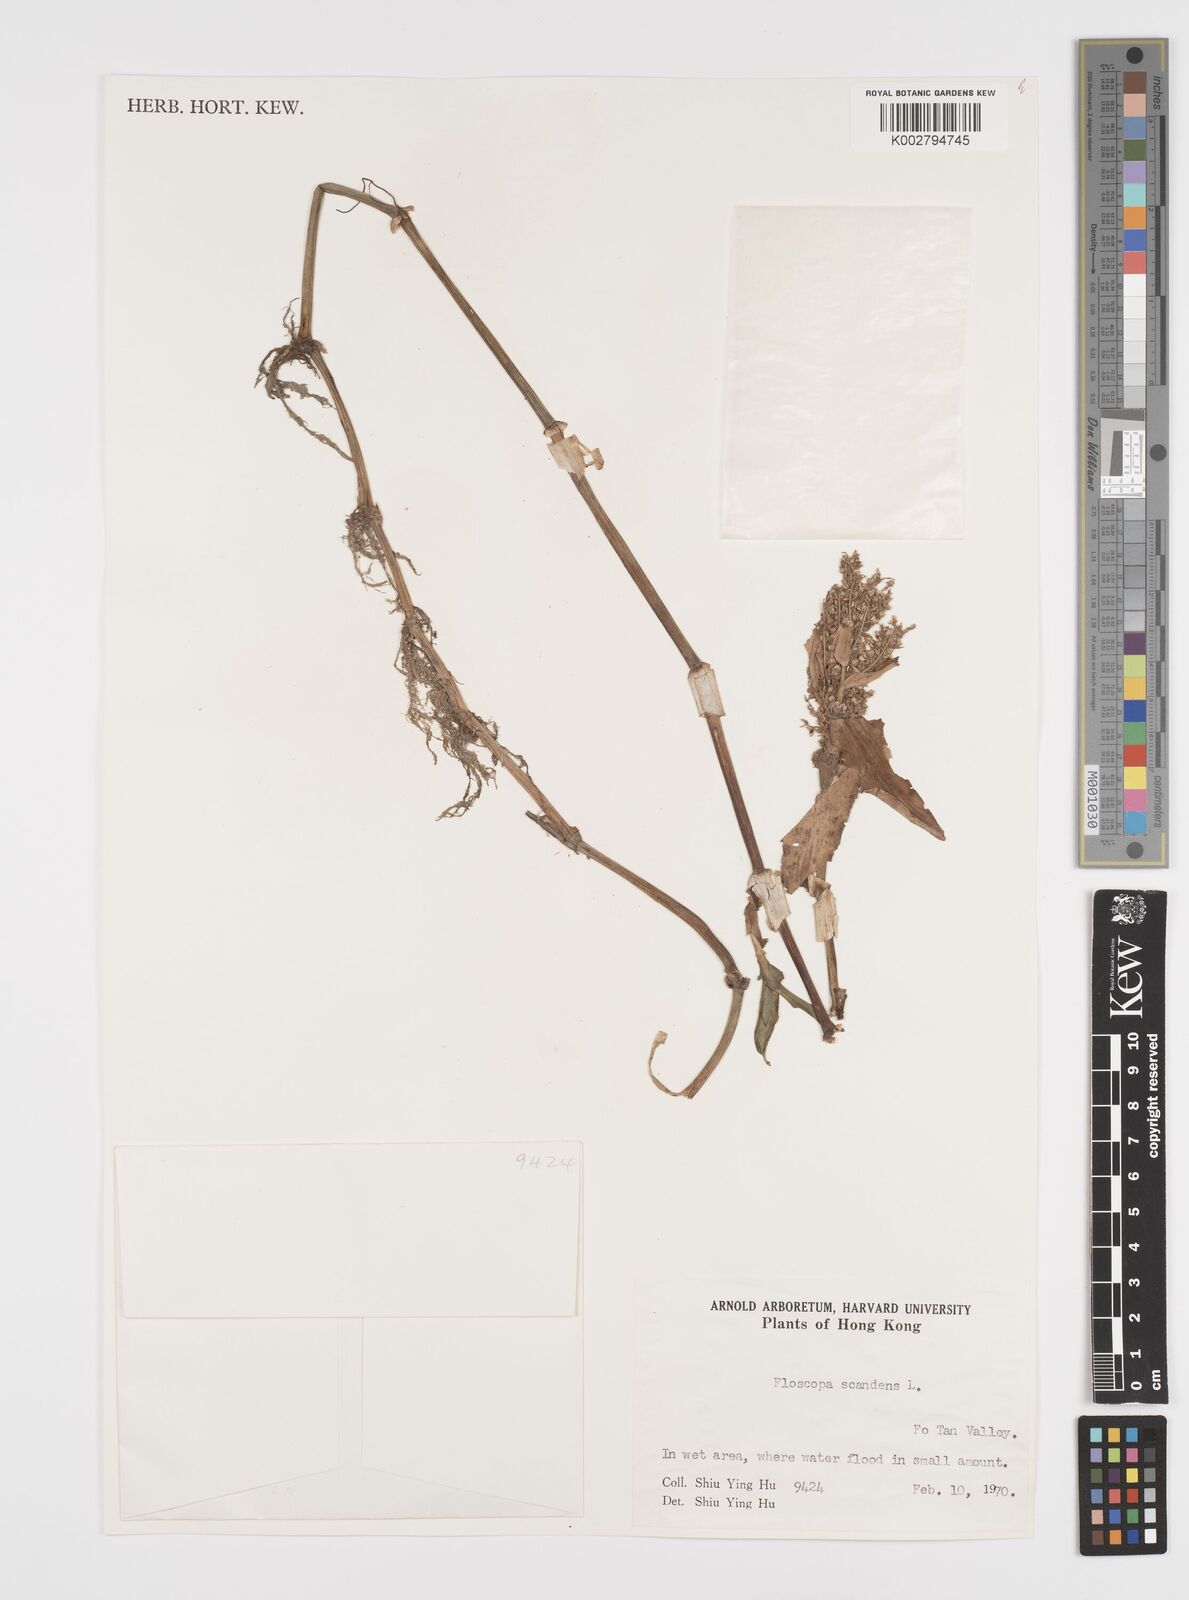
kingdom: Plantae
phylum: Tracheophyta
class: Liliopsida
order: Commelinales
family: Commelinaceae
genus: Floscopa
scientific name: Floscopa scandens
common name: Climbing flower cup
